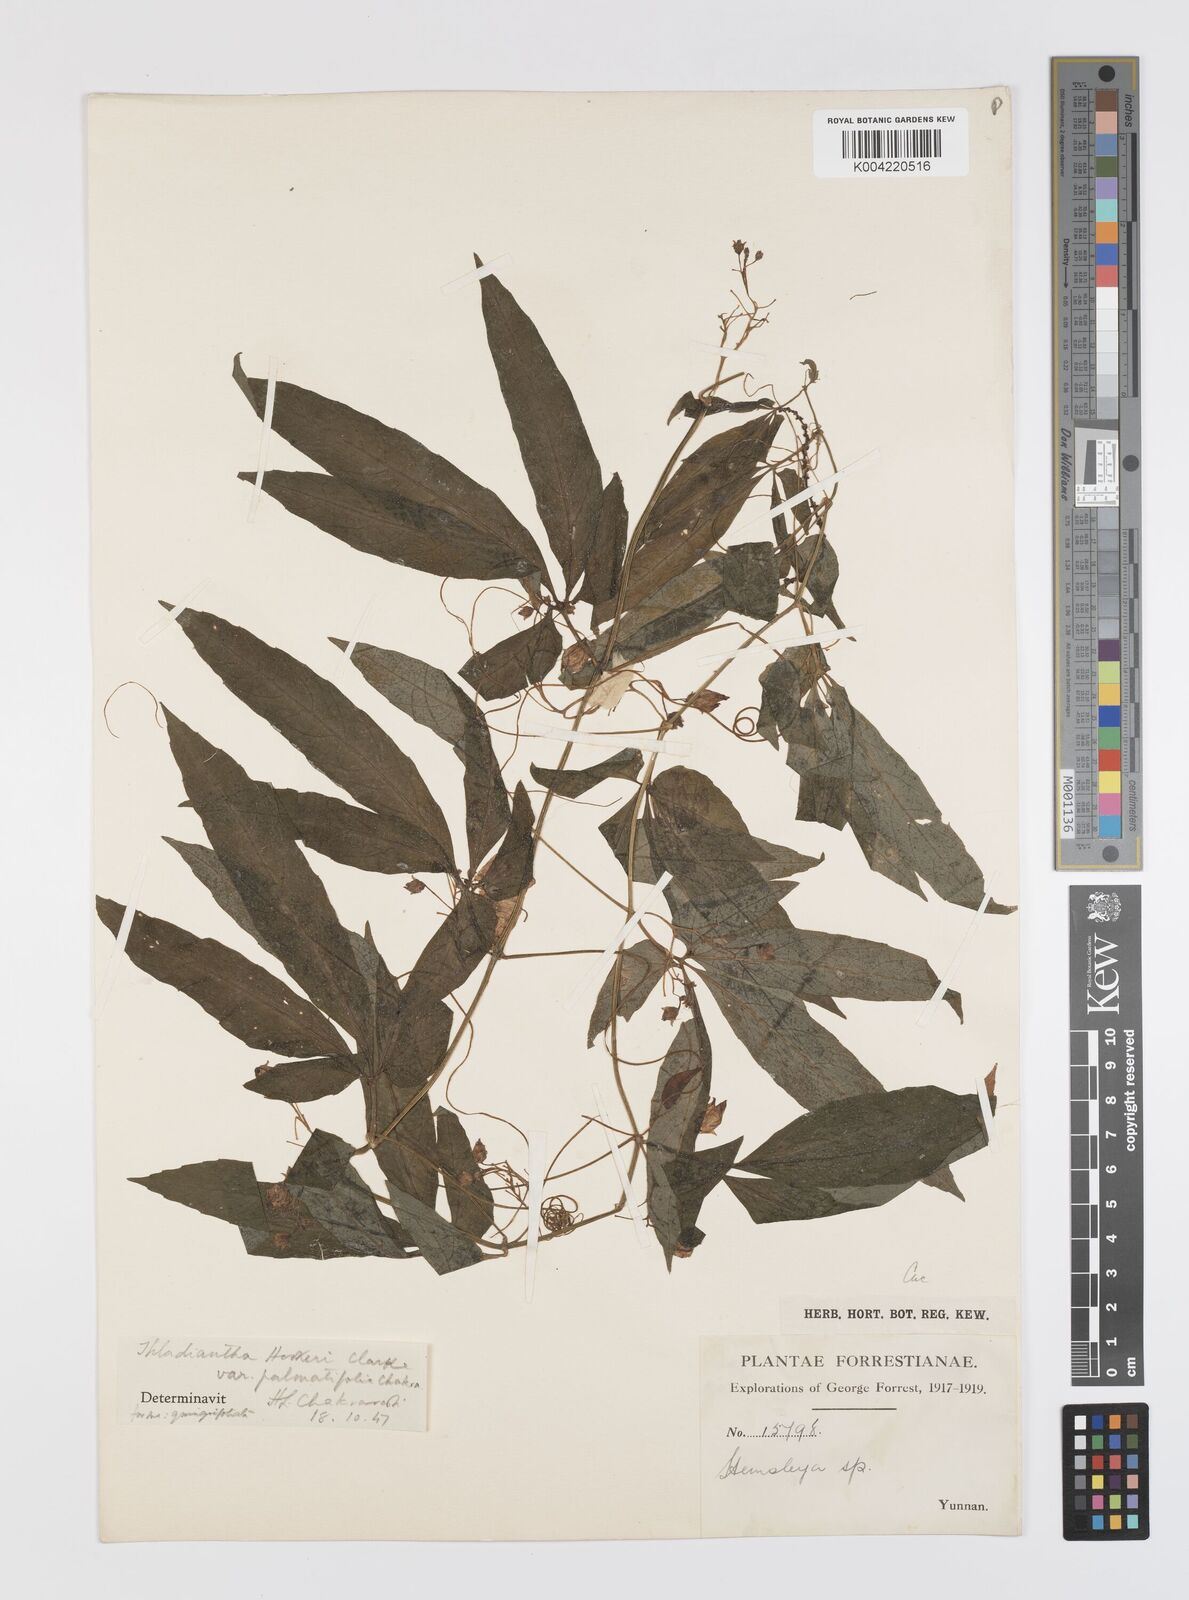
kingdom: Plantae
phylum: Tracheophyta
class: Magnoliopsida
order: Cucurbitales
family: Cucurbitaceae
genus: Thladiantha
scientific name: Thladiantha hookeri
